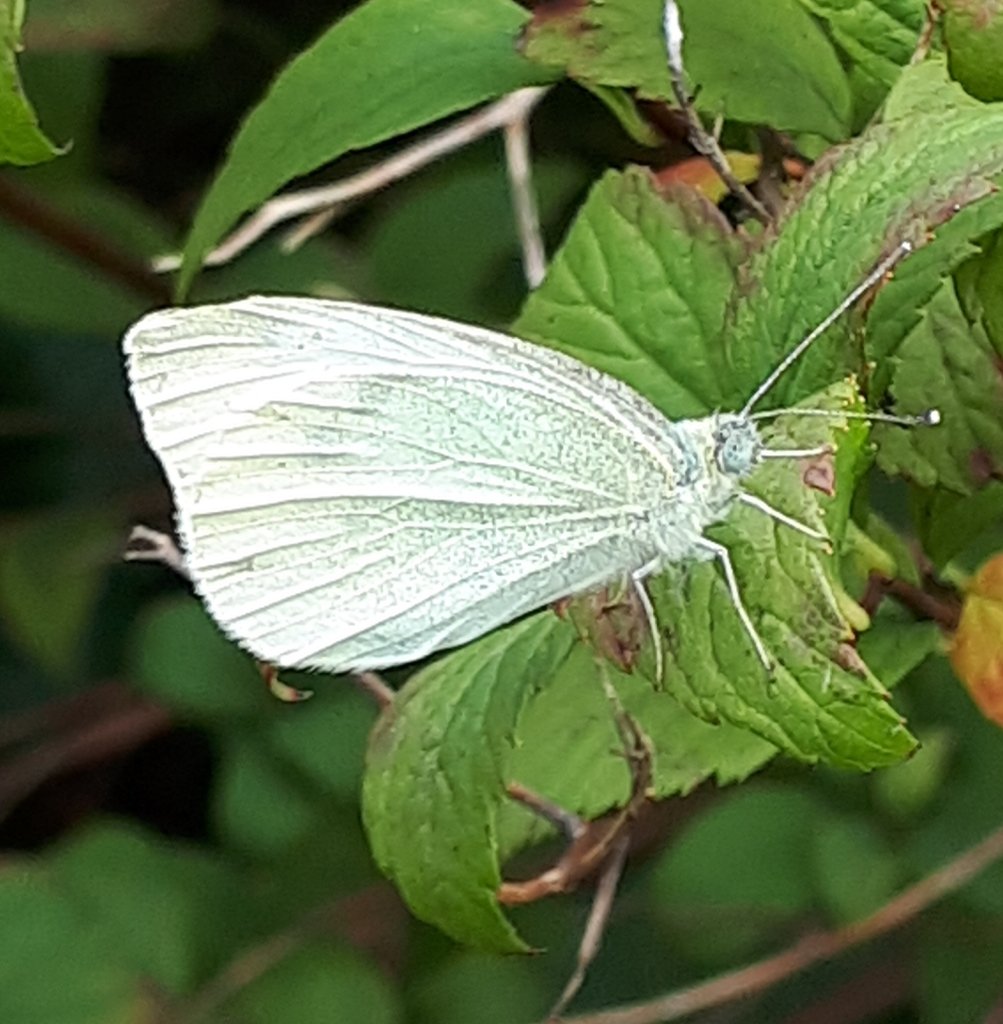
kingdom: Animalia
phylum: Arthropoda
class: Insecta
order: Lepidoptera
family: Pieridae
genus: Pieris
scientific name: Pieris rapae
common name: Cabbage White
